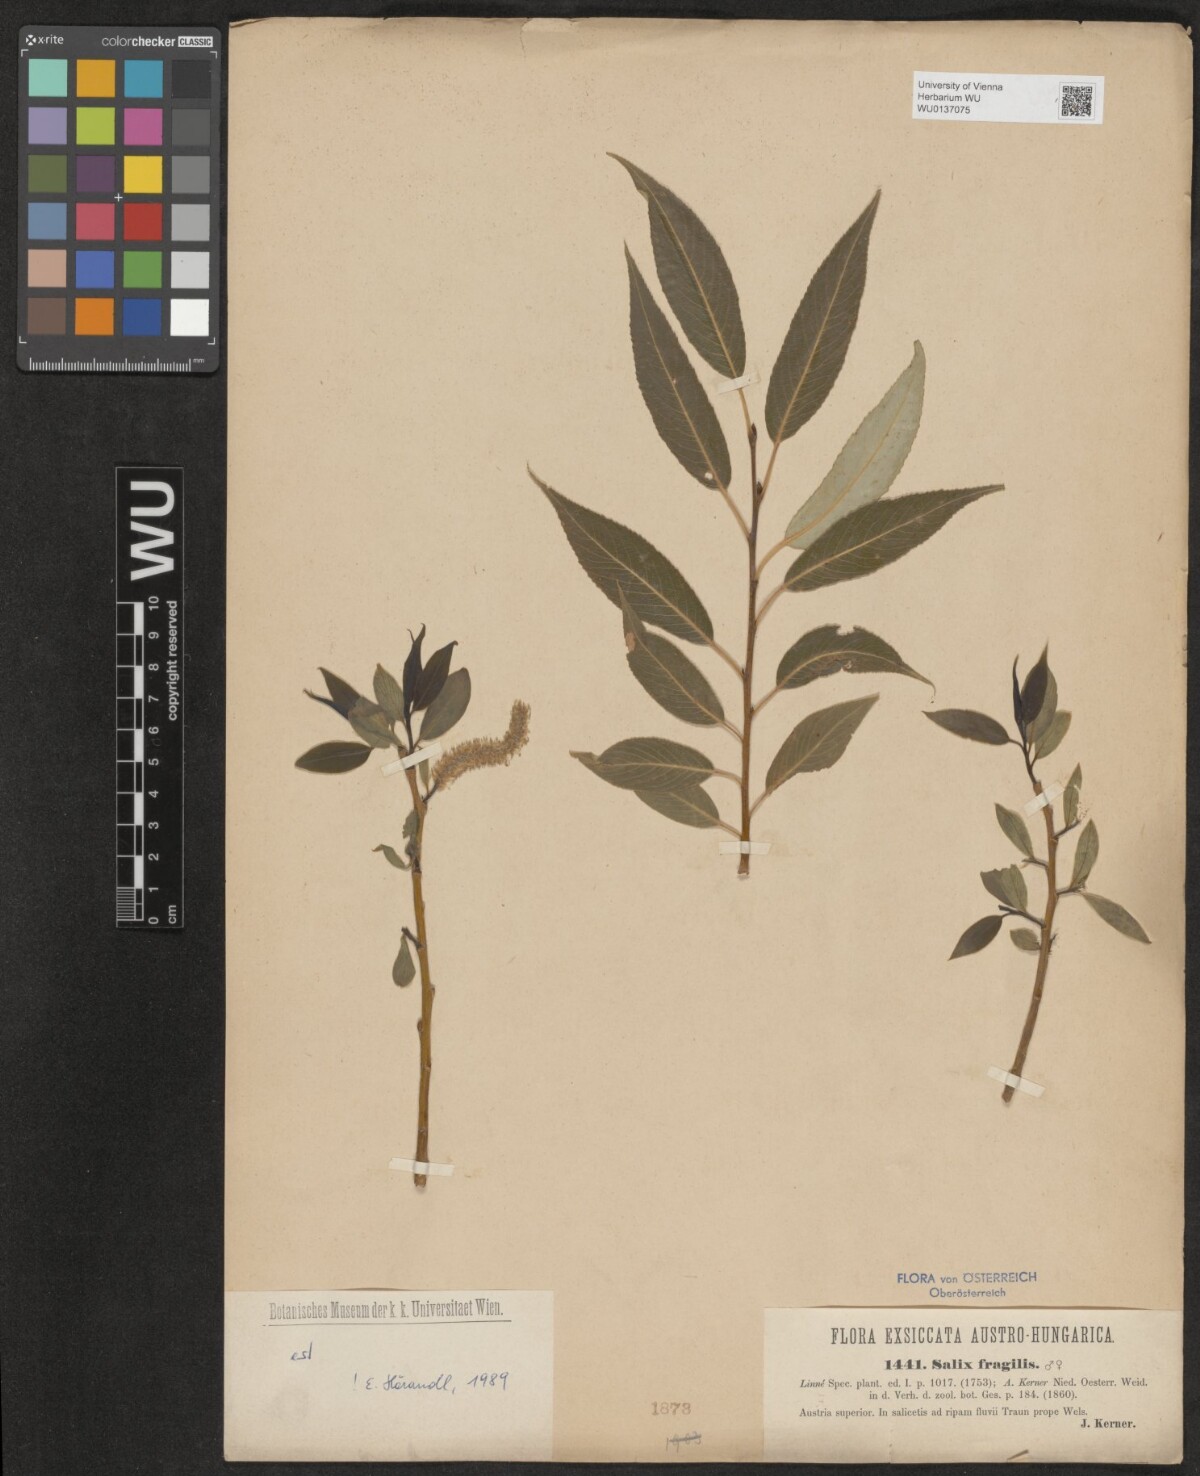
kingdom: Plantae
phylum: Tracheophyta
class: Magnoliopsida
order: Malpighiales
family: Salicaceae
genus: Salix
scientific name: Salix fragilis
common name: Crack willow
